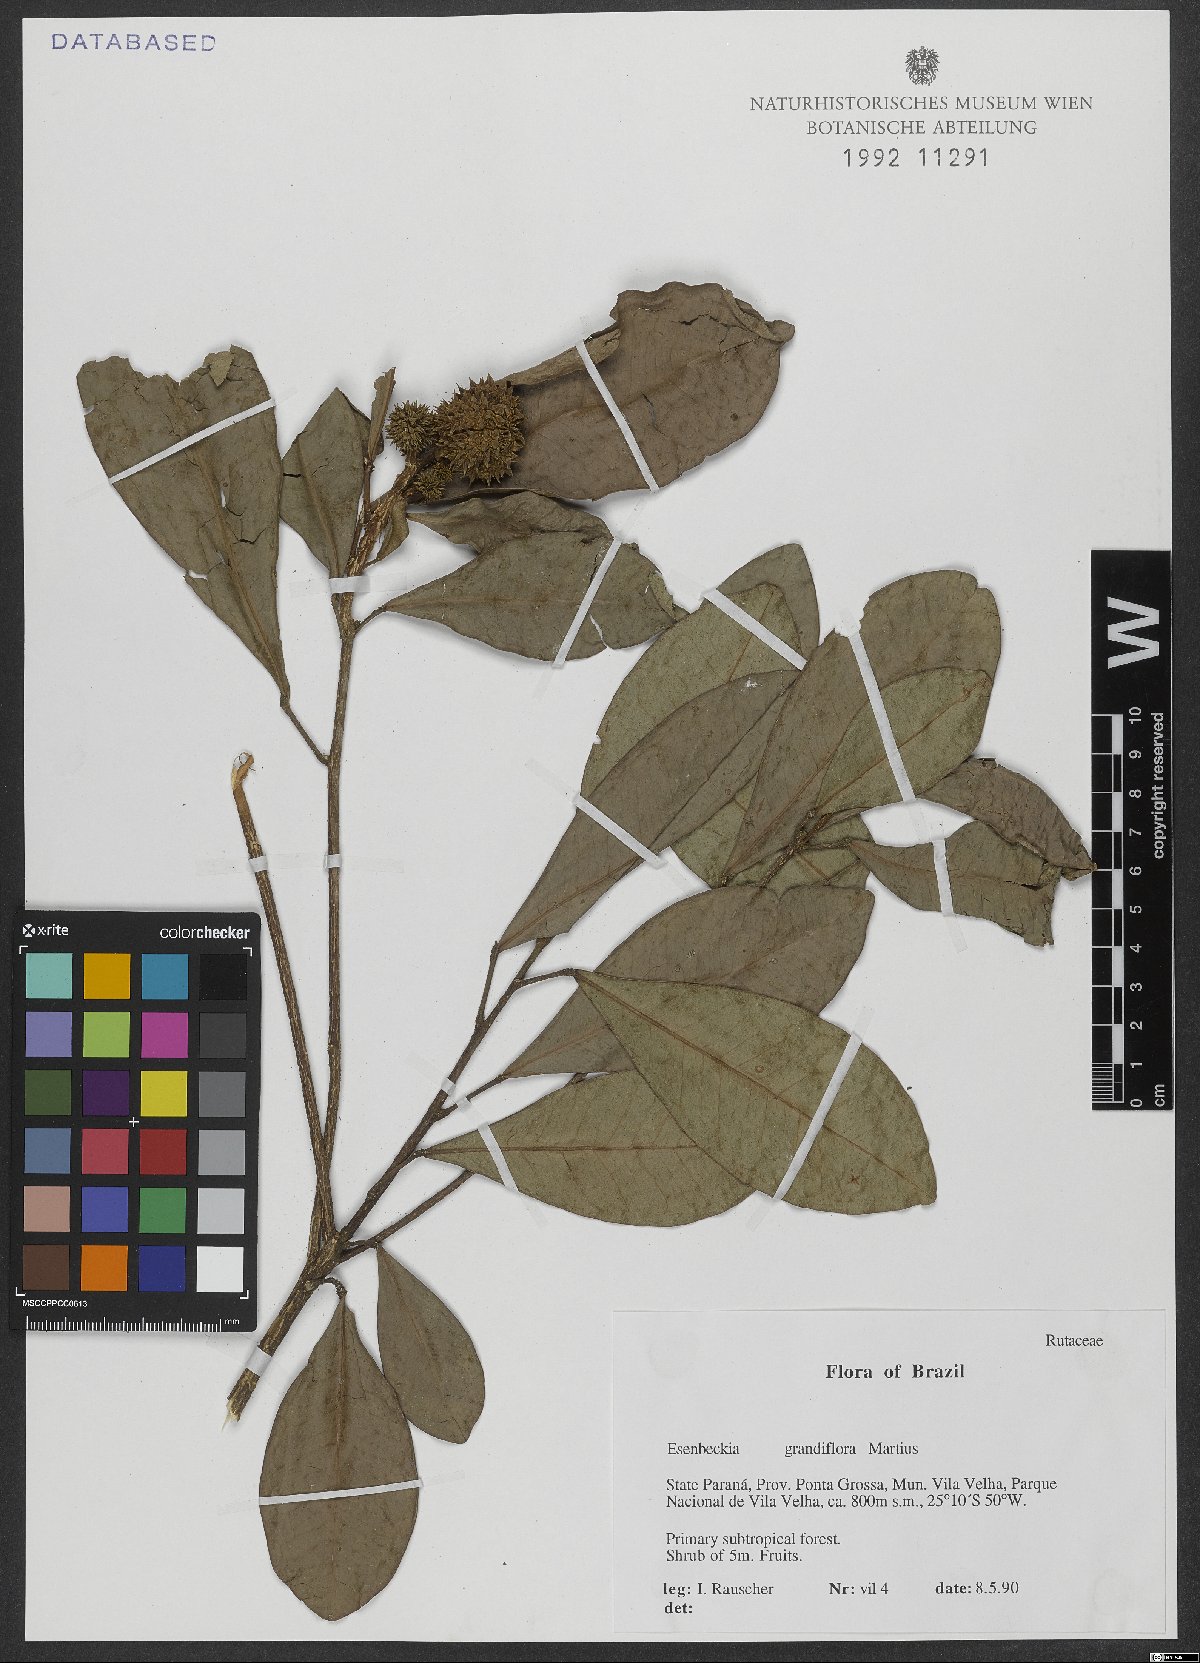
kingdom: Plantae
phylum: Tracheophyta
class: Magnoliopsida
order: Sapindales
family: Rutaceae
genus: Esenbeckia
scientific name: Esenbeckia grandiflora
